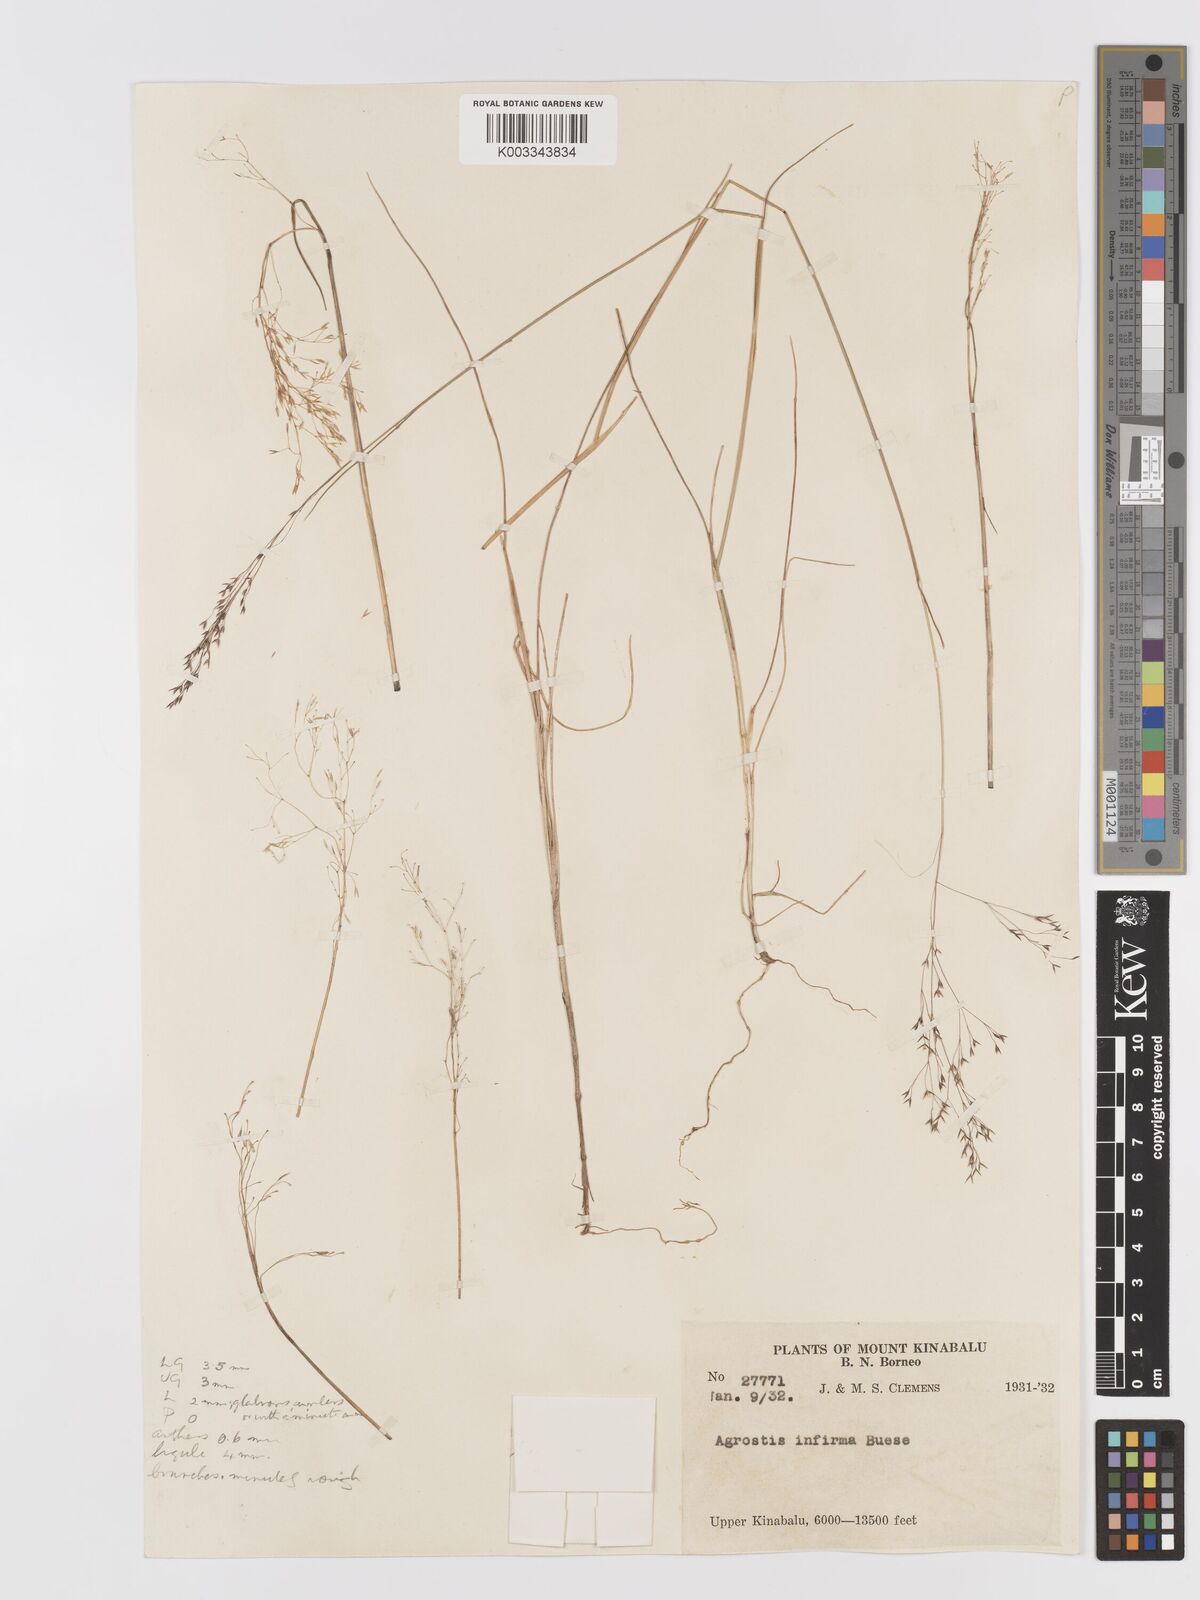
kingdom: Plantae
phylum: Tracheophyta
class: Liliopsida
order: Poales
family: Poaceae
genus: Agrostis
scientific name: Agrostis infirma
